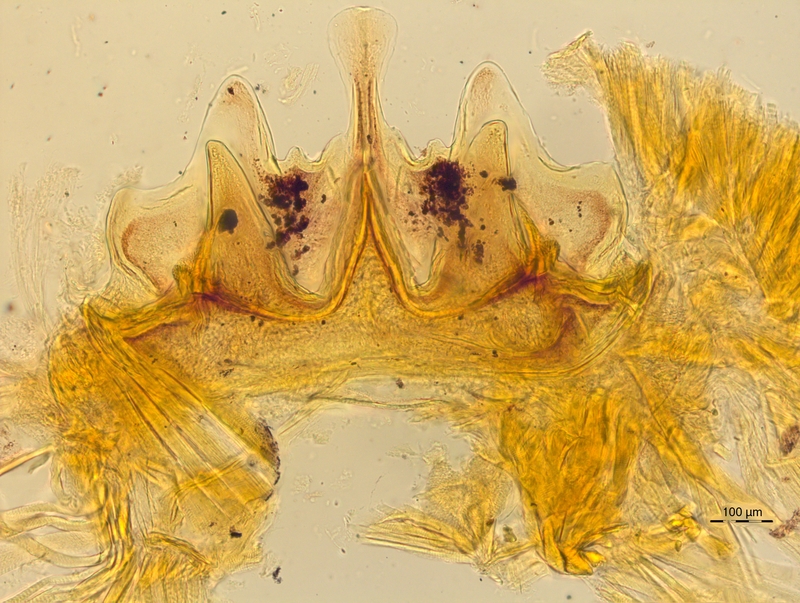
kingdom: Animalia
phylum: Arthropoda
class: Diplopoda
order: Chordeumatida
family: Craspedosomatidae
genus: Craspedosoma
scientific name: Craspedosoma rawlinsii
